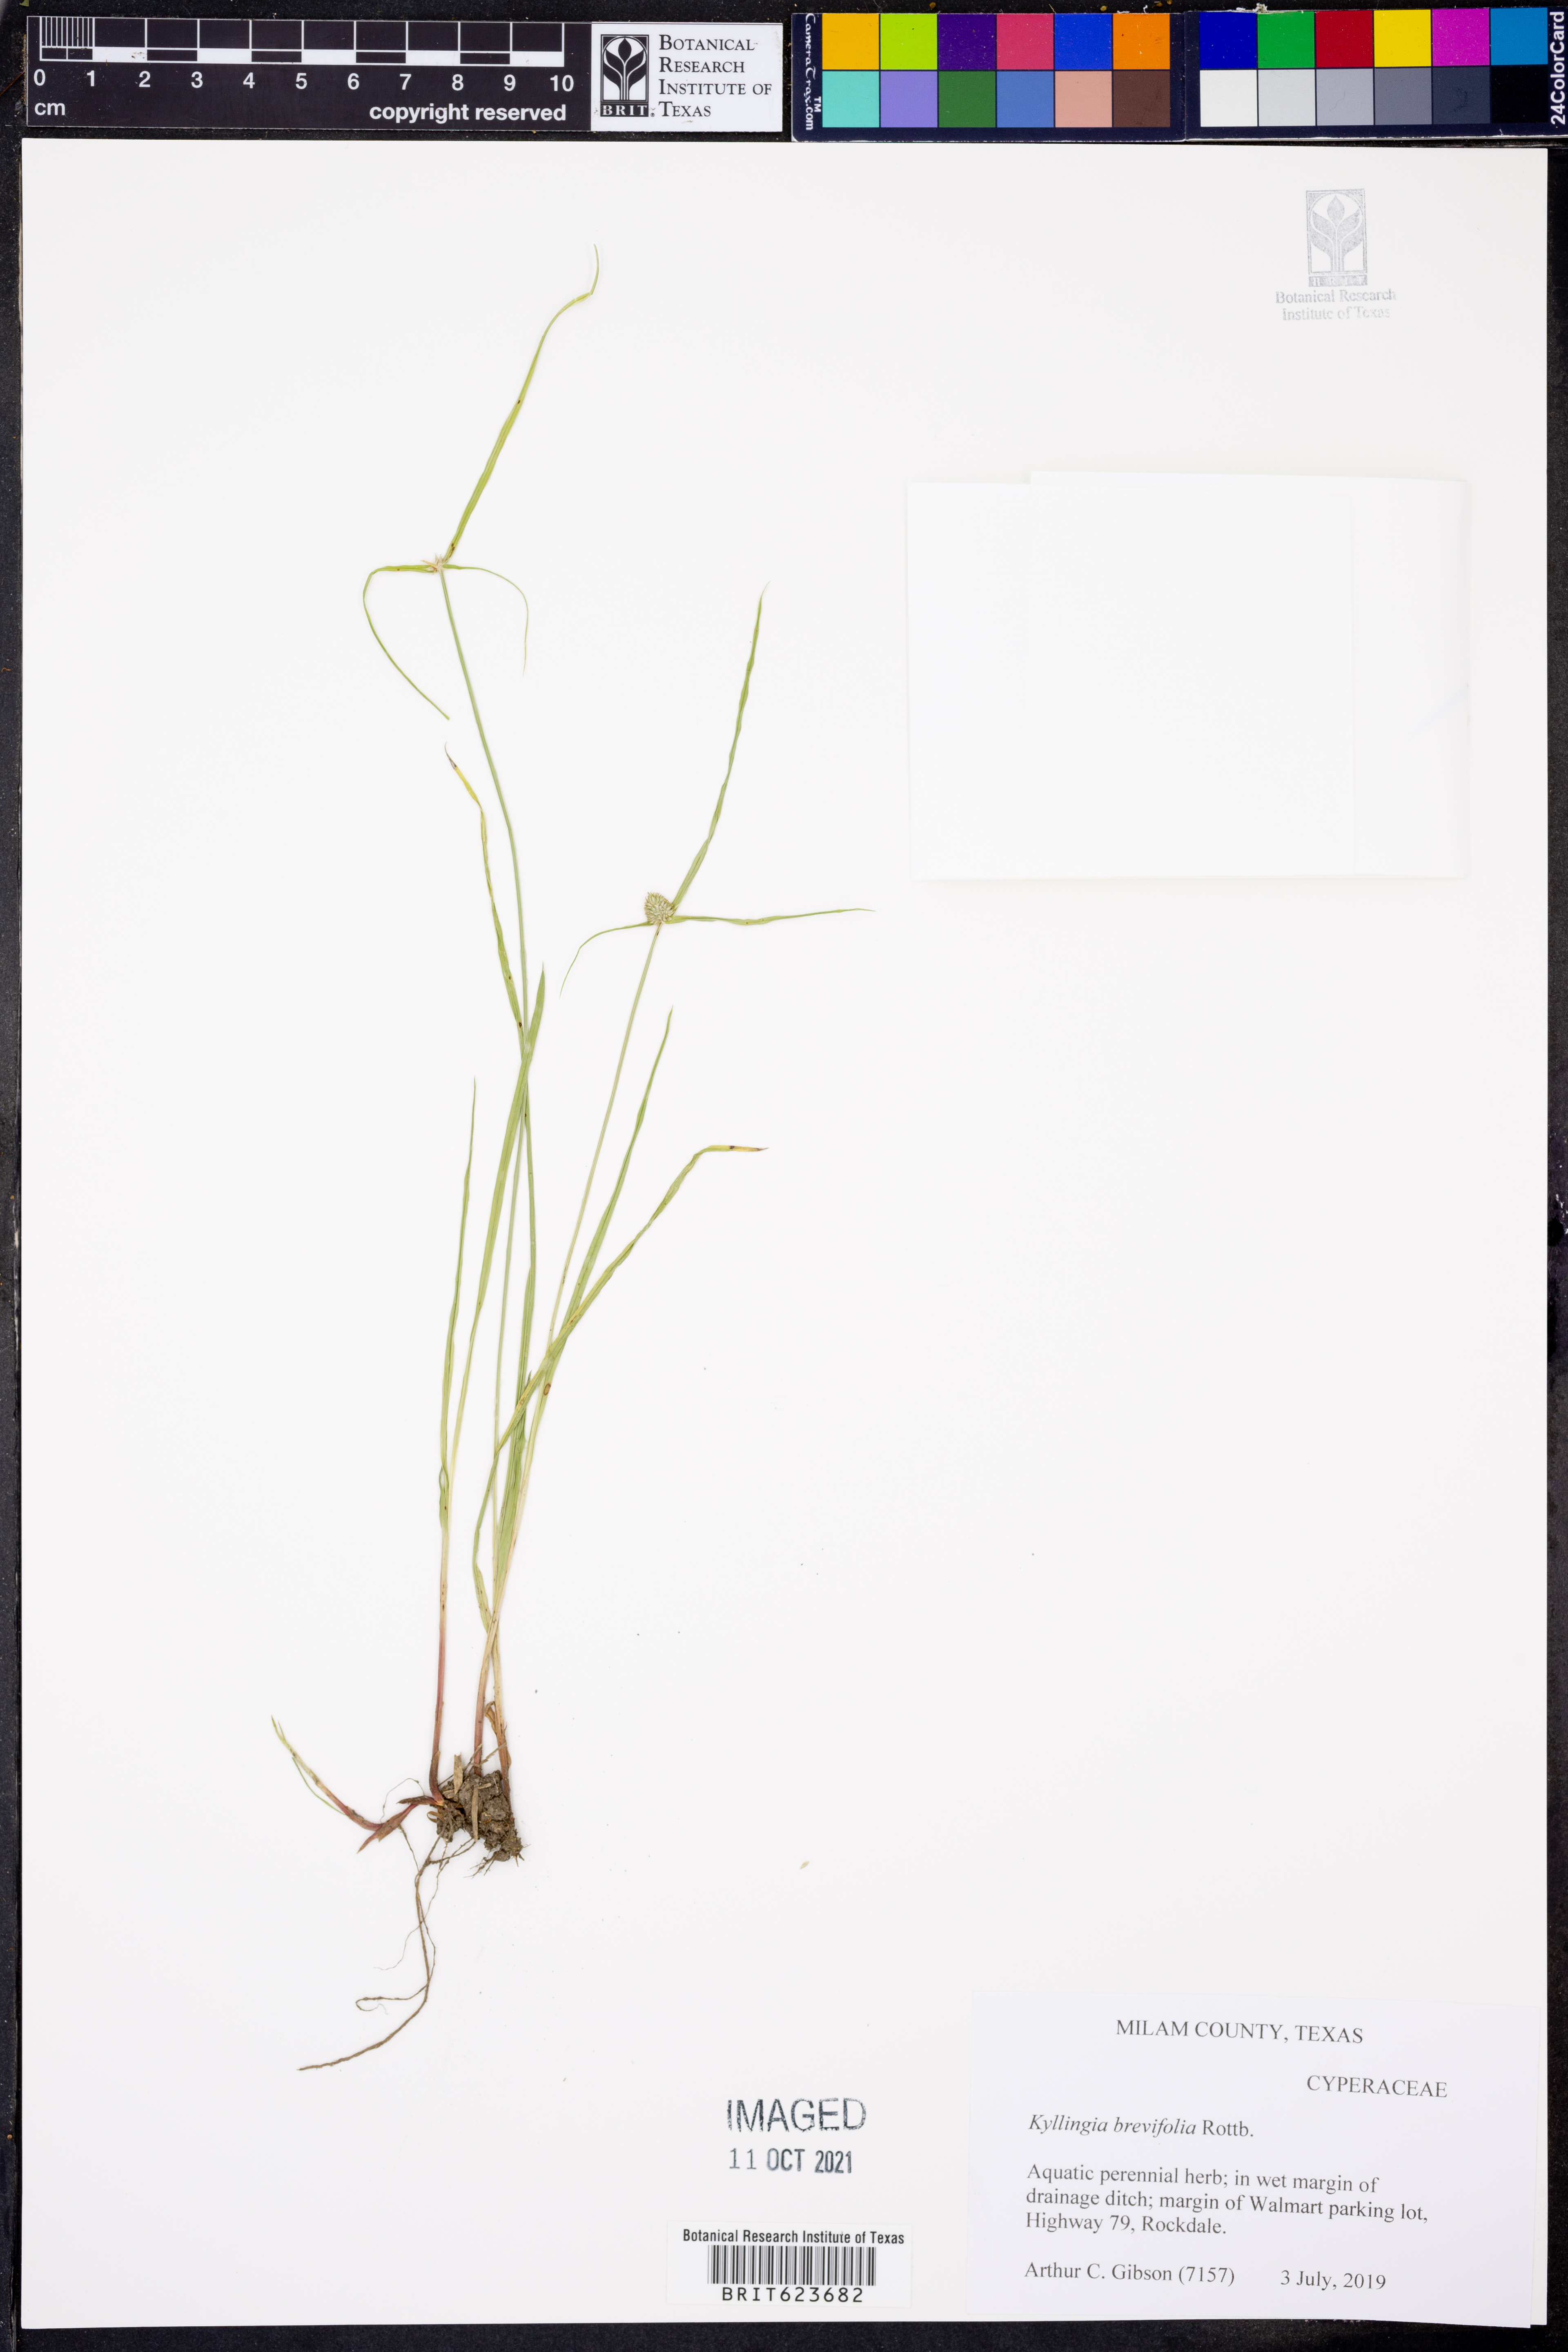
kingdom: Plantae
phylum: Tracheophyta
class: Liliopsida
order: Poales
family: Cyperaceae
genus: Cyperus
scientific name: Cyperus brevifolius
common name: Globe kyllinga
